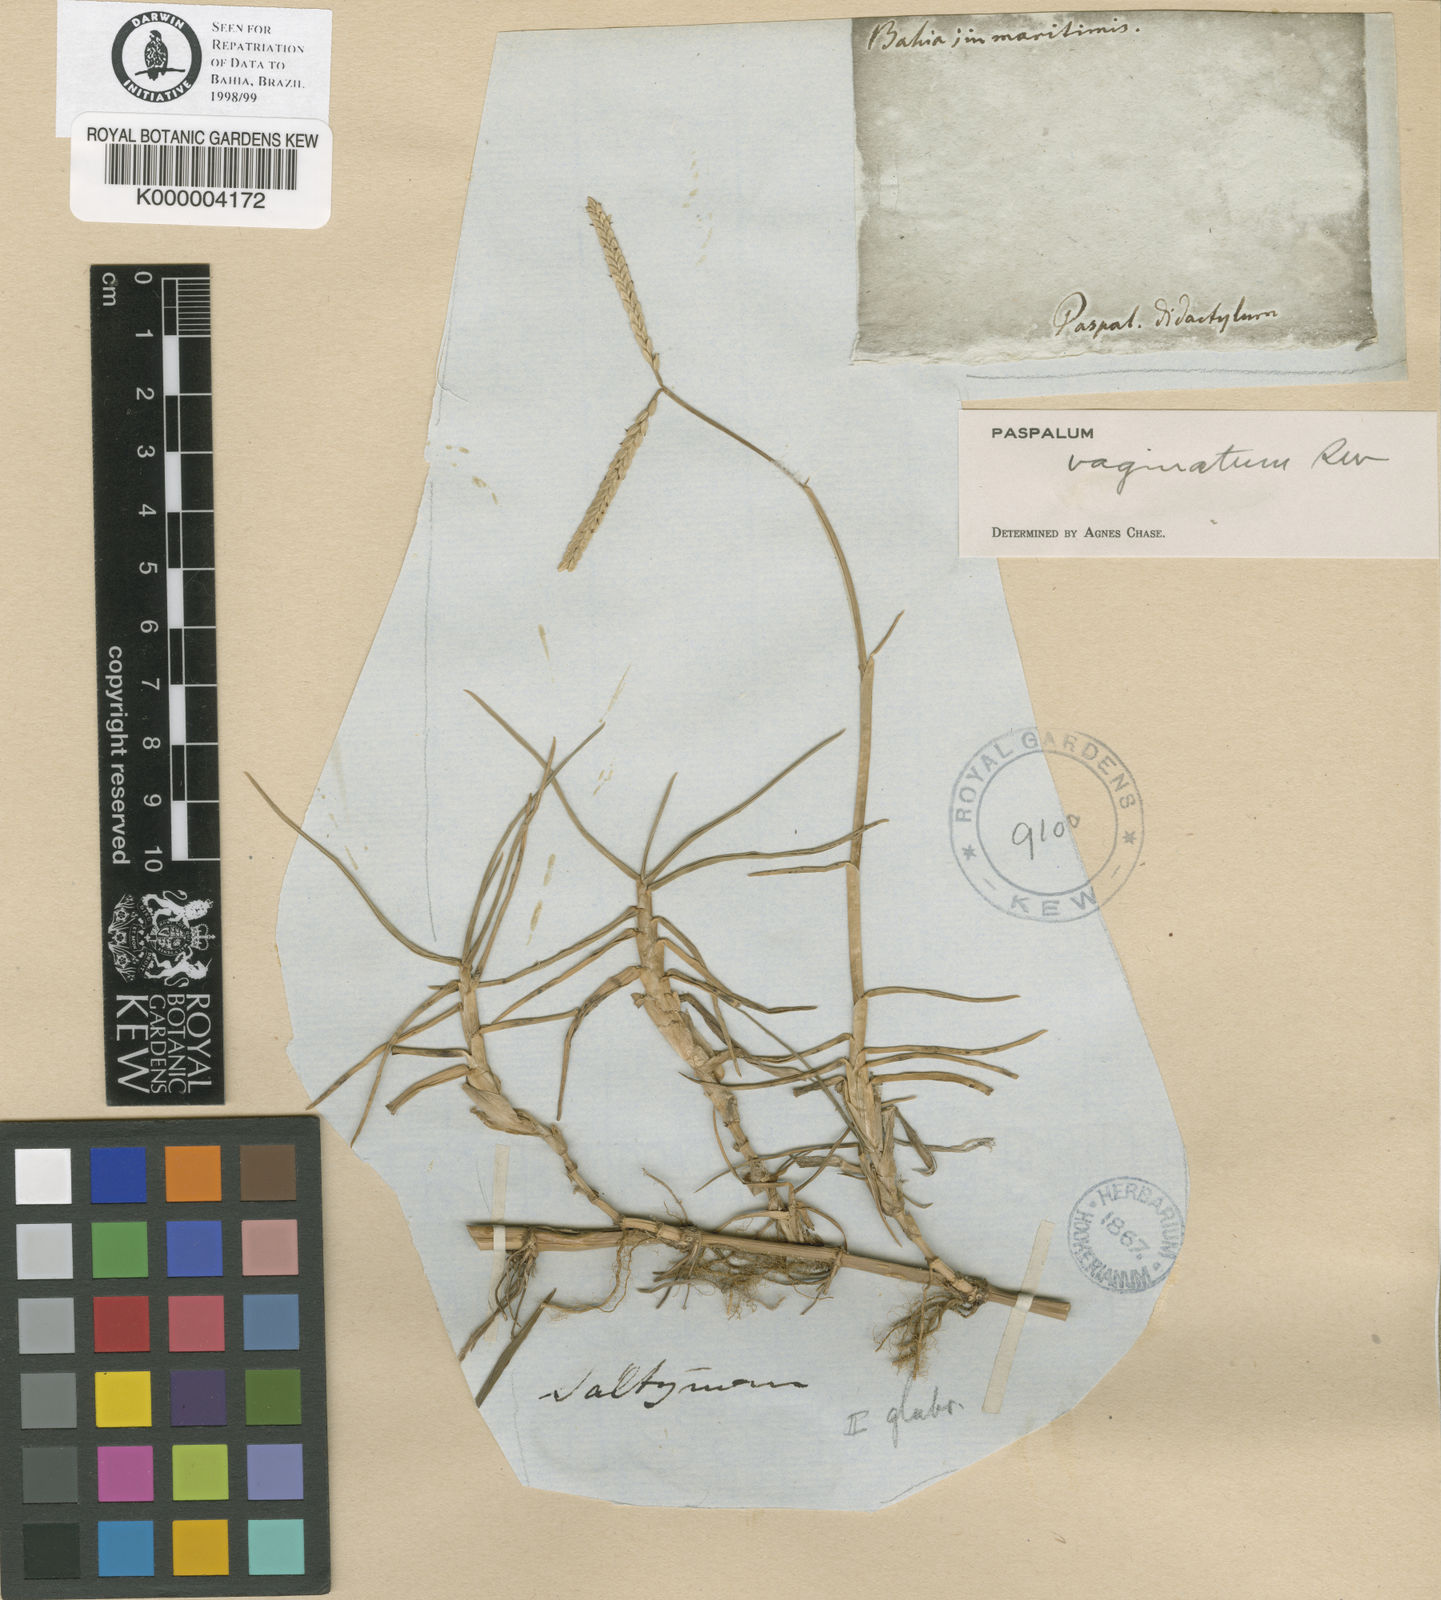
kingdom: Plantae
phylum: Tracheophyta
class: Liliopsida
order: Poales
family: Poaceae
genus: Paspalum
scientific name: Paspalum vaginatum
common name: Seashore paspalum
